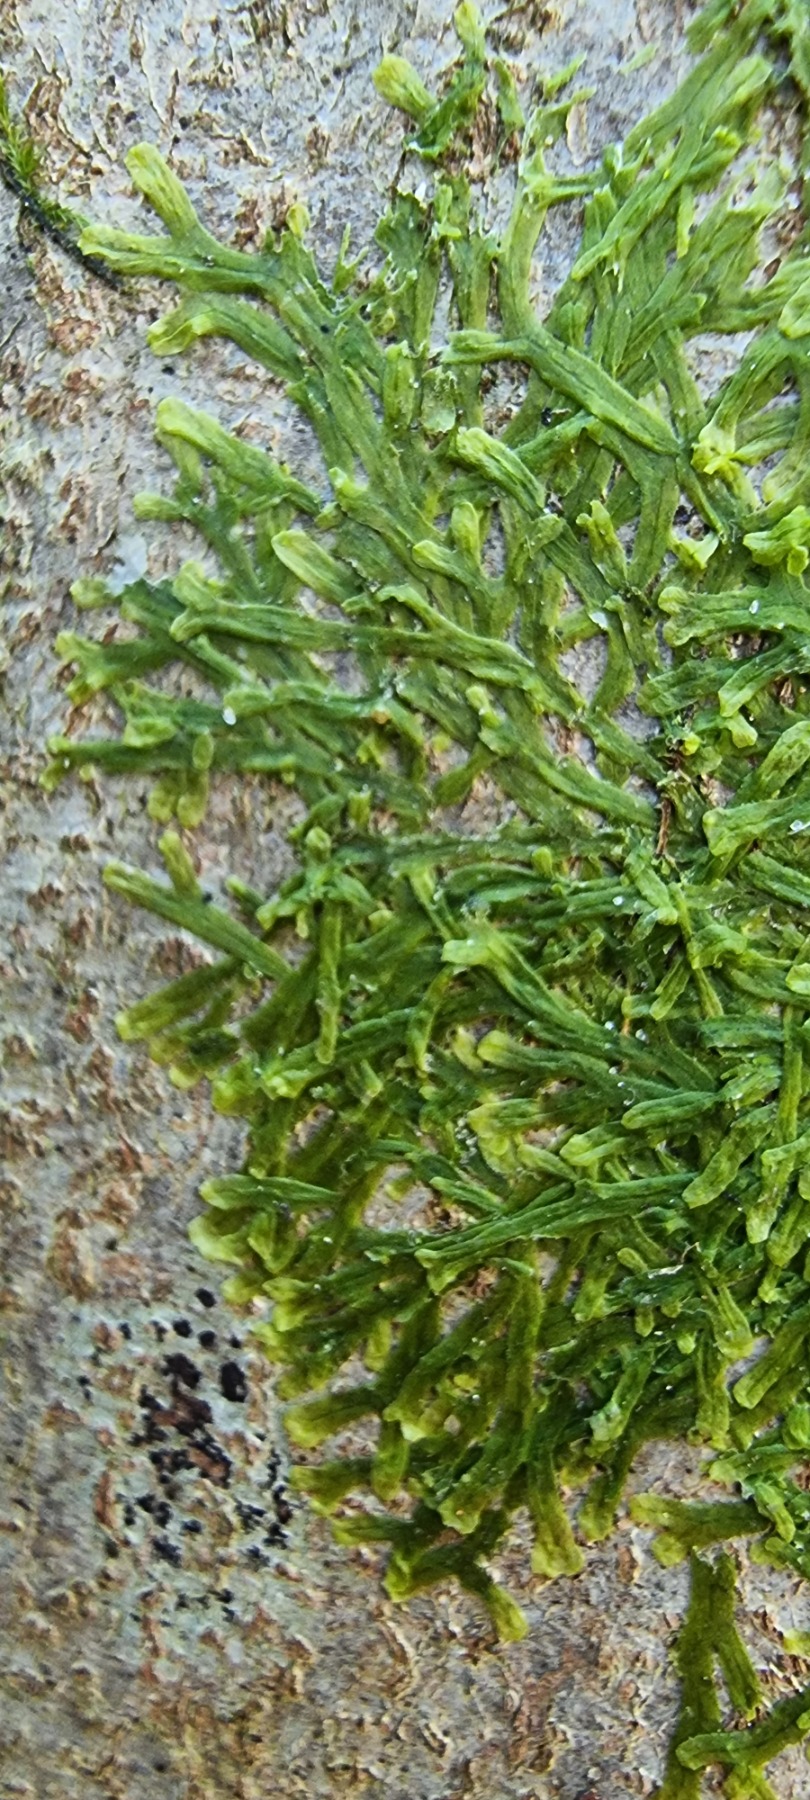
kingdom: Plantae
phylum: Marchantiophyta
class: Jungermanniopsida
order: Metzgeriales
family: Metzgeriaceae
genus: Metzgeria
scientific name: Metzgeria furcata
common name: Almindelig gaffelløv
